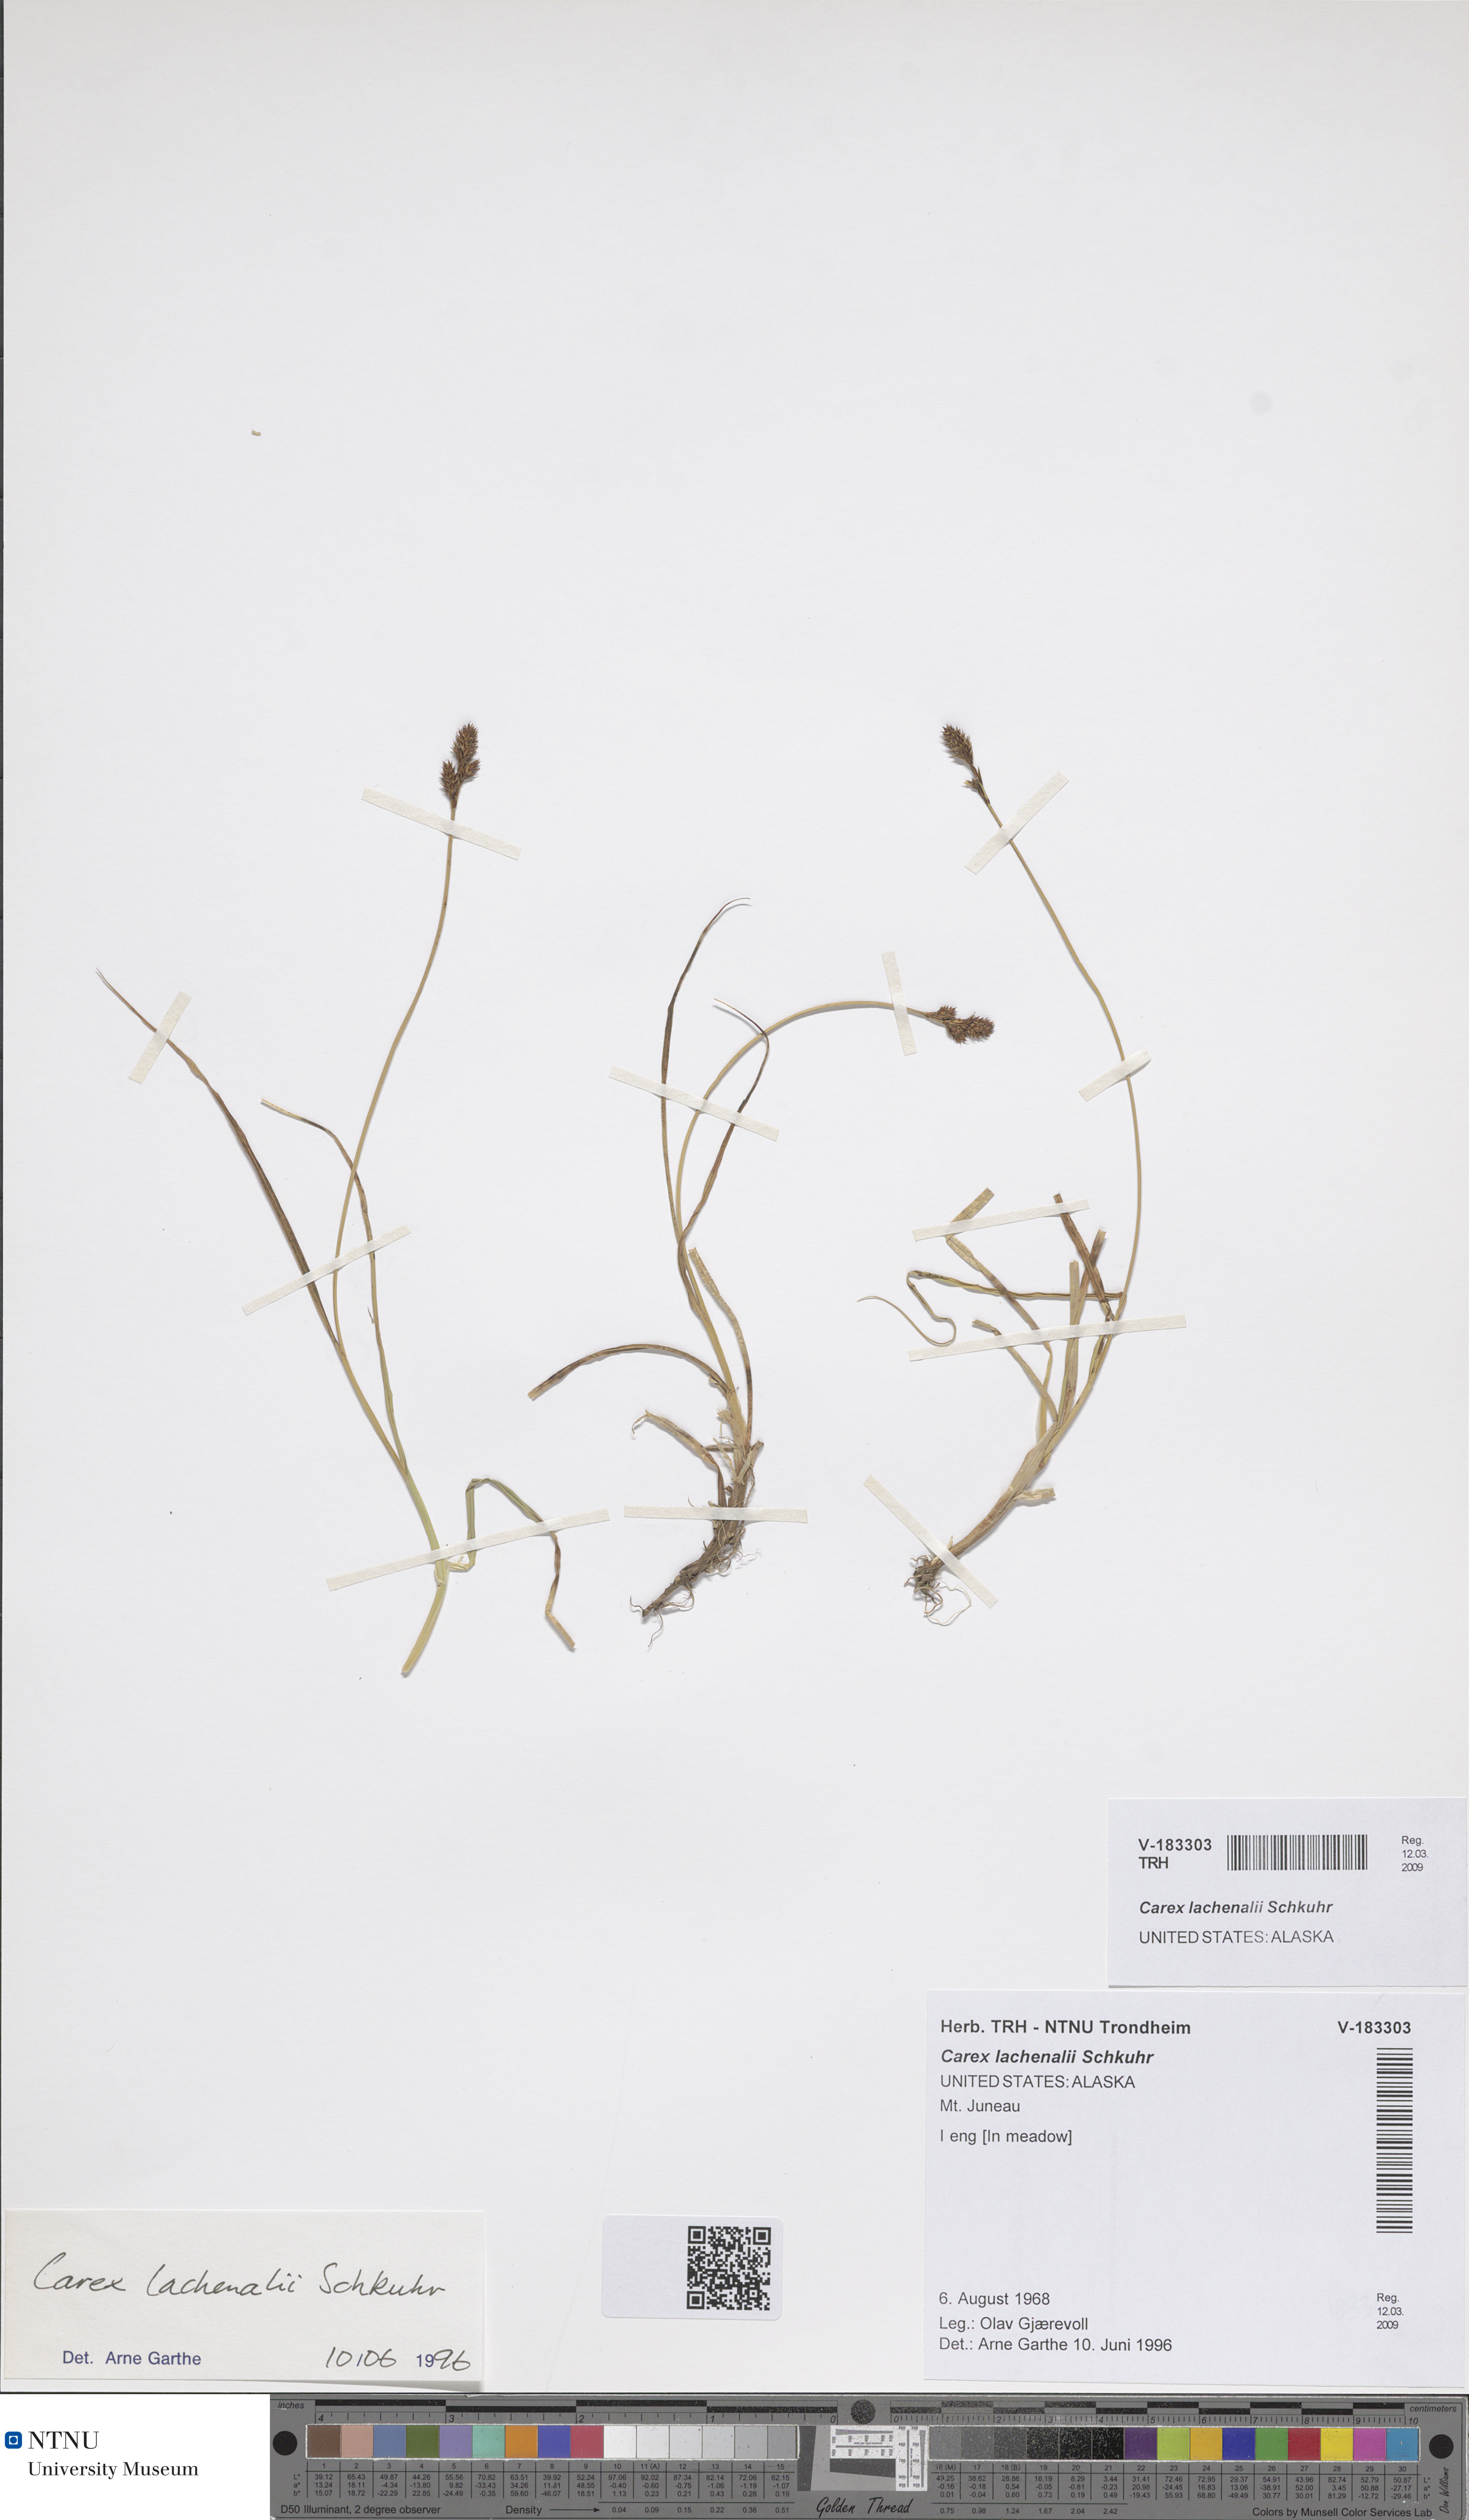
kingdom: Plantae
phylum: Tracheophyta
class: Liliopsida
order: Poales
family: Cyperaceae
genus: Carex
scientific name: Carex lachenalii
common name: Hare's-foot sedge
